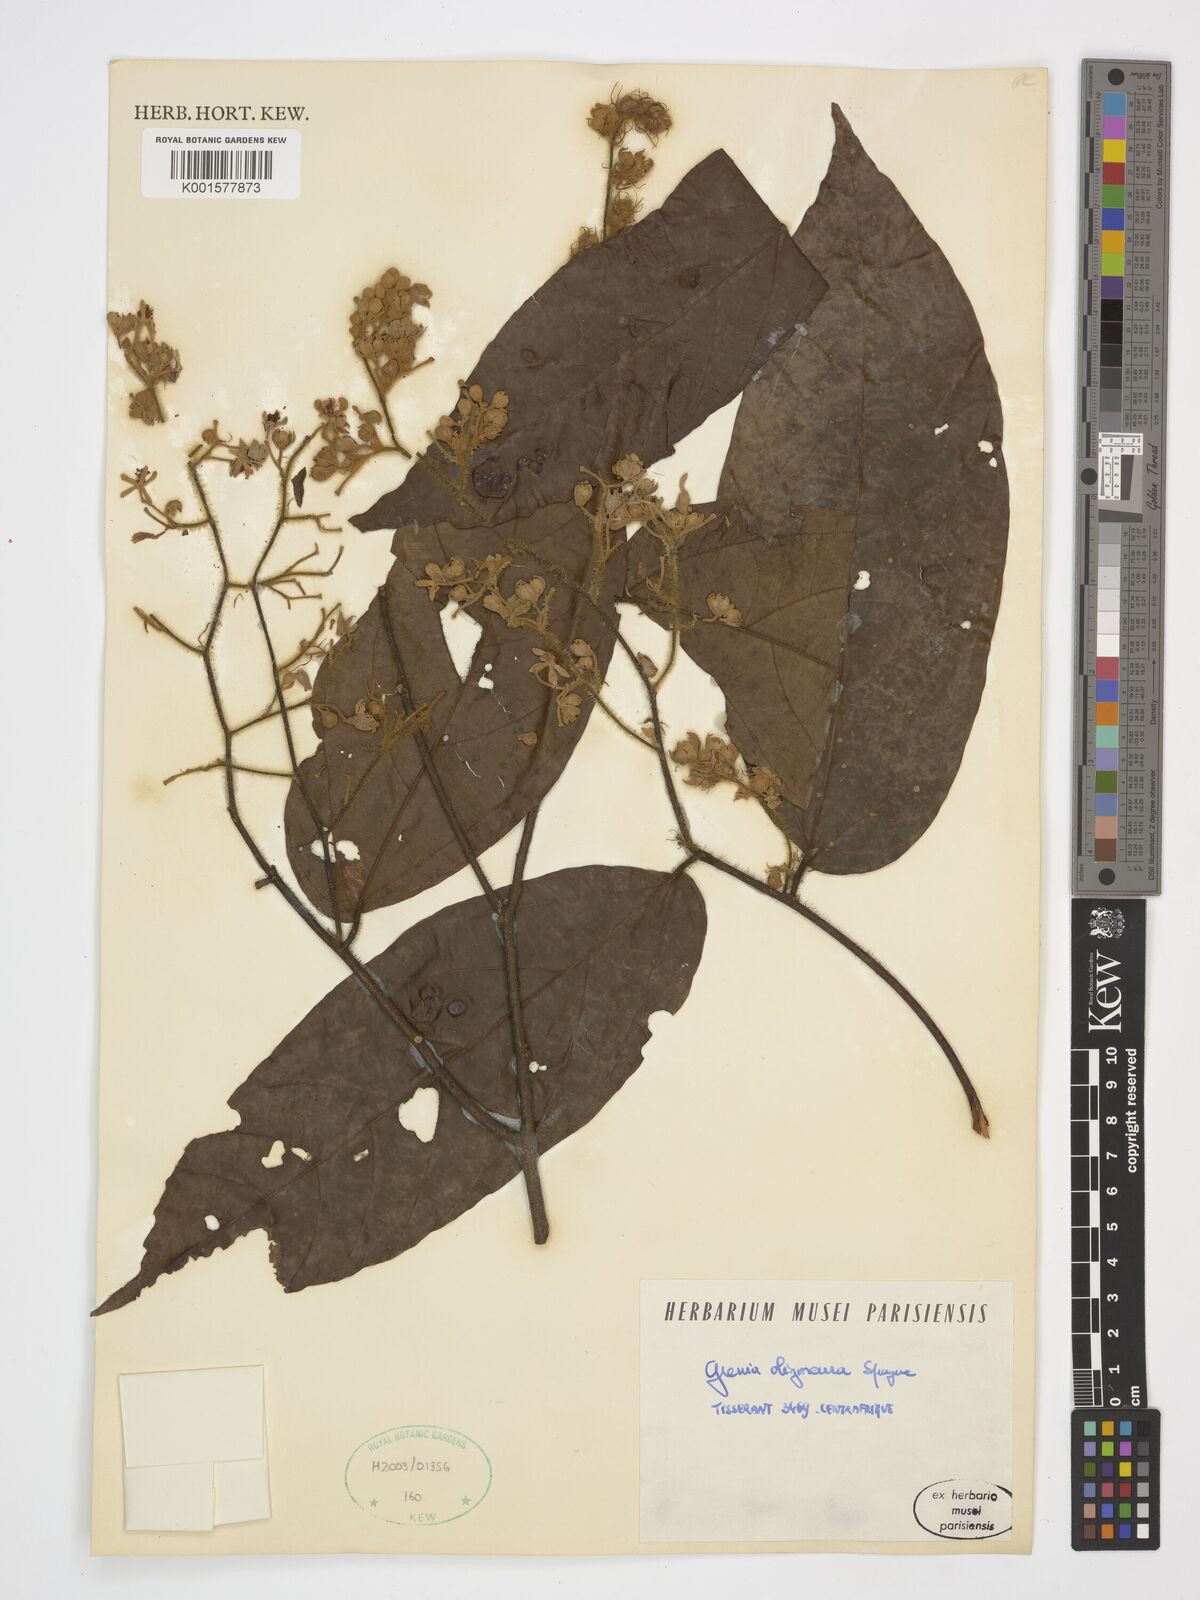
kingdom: Plantae
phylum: Tracheophyta
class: Magnoliopsida
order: Malvales
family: Malvaceae
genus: Microcos
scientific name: Microcos oligoneura
